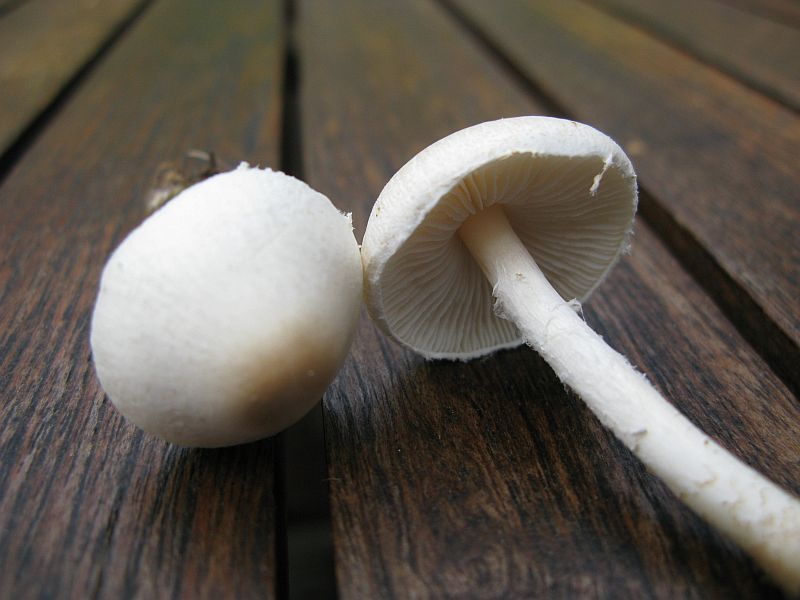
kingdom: Fungi
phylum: Basidiomycota
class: Agaricomycetes
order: Agaricales
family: Agaricaceae
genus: Lepiota
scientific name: Lepiota erminea
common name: hvid parasolhat
